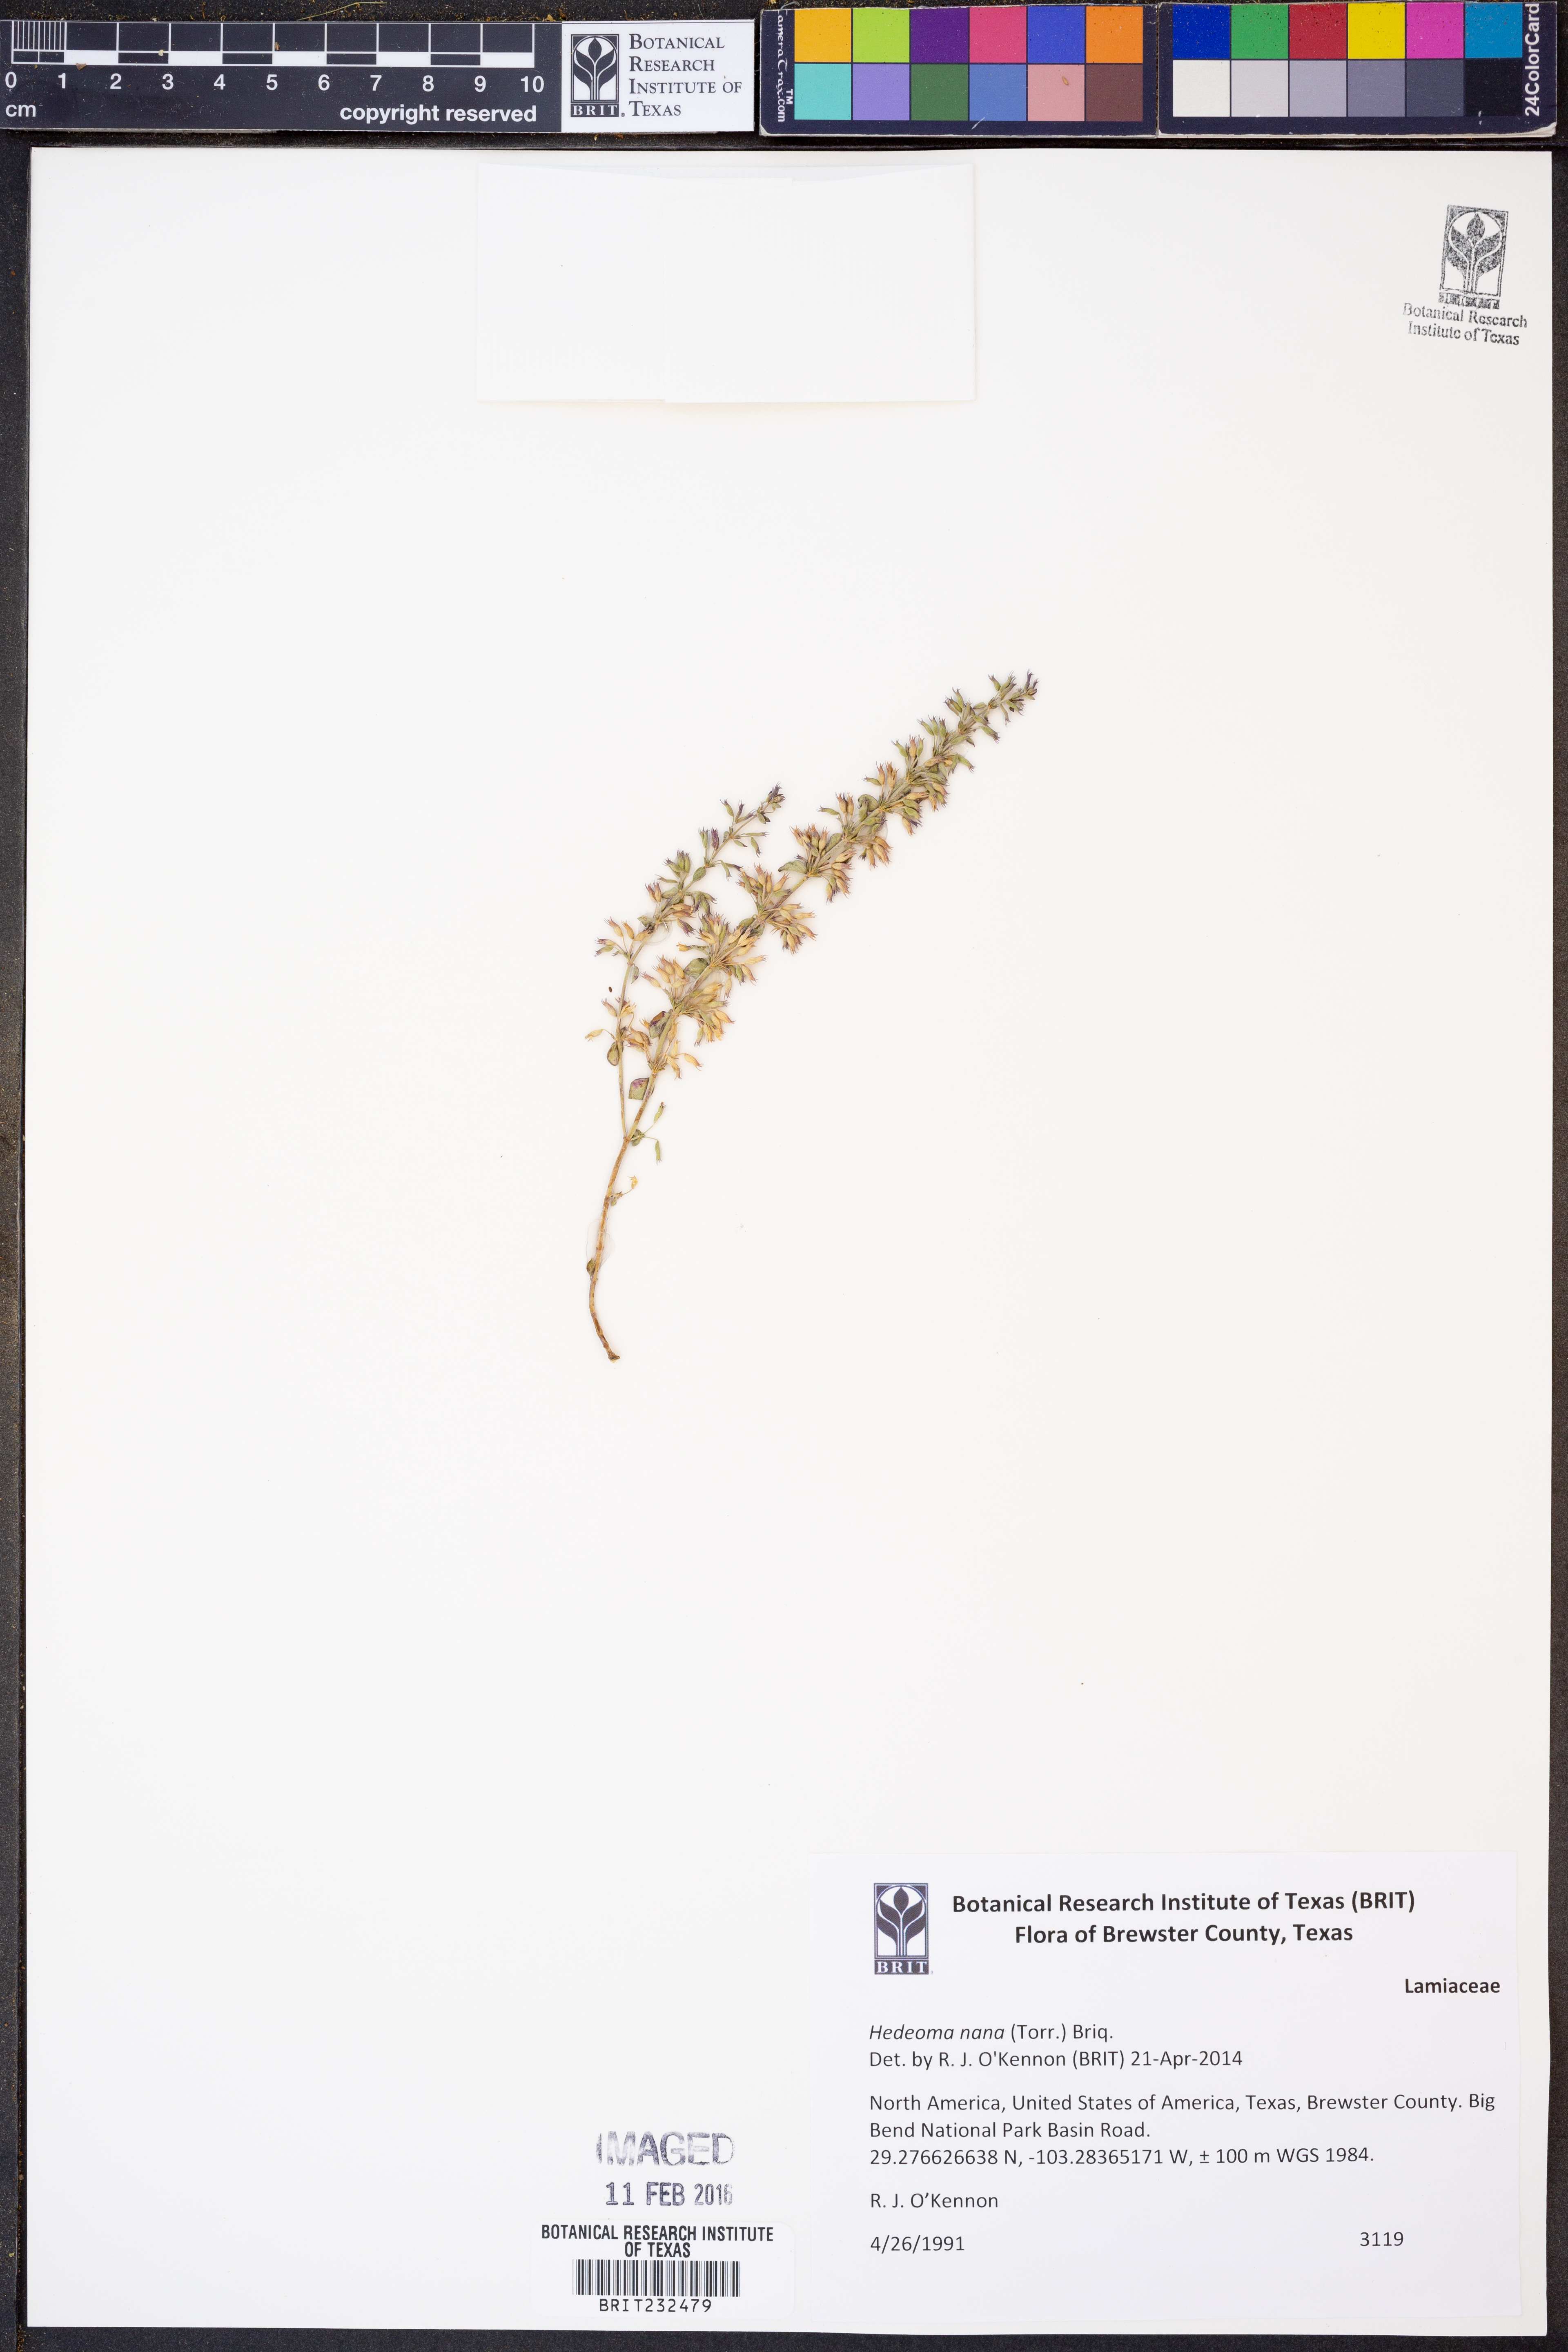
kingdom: Plantae
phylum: Tracheophyta
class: Magnoliopsida
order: Lamiales
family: Lamiaceae
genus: Hedeoma
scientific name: Hedeoma nana
